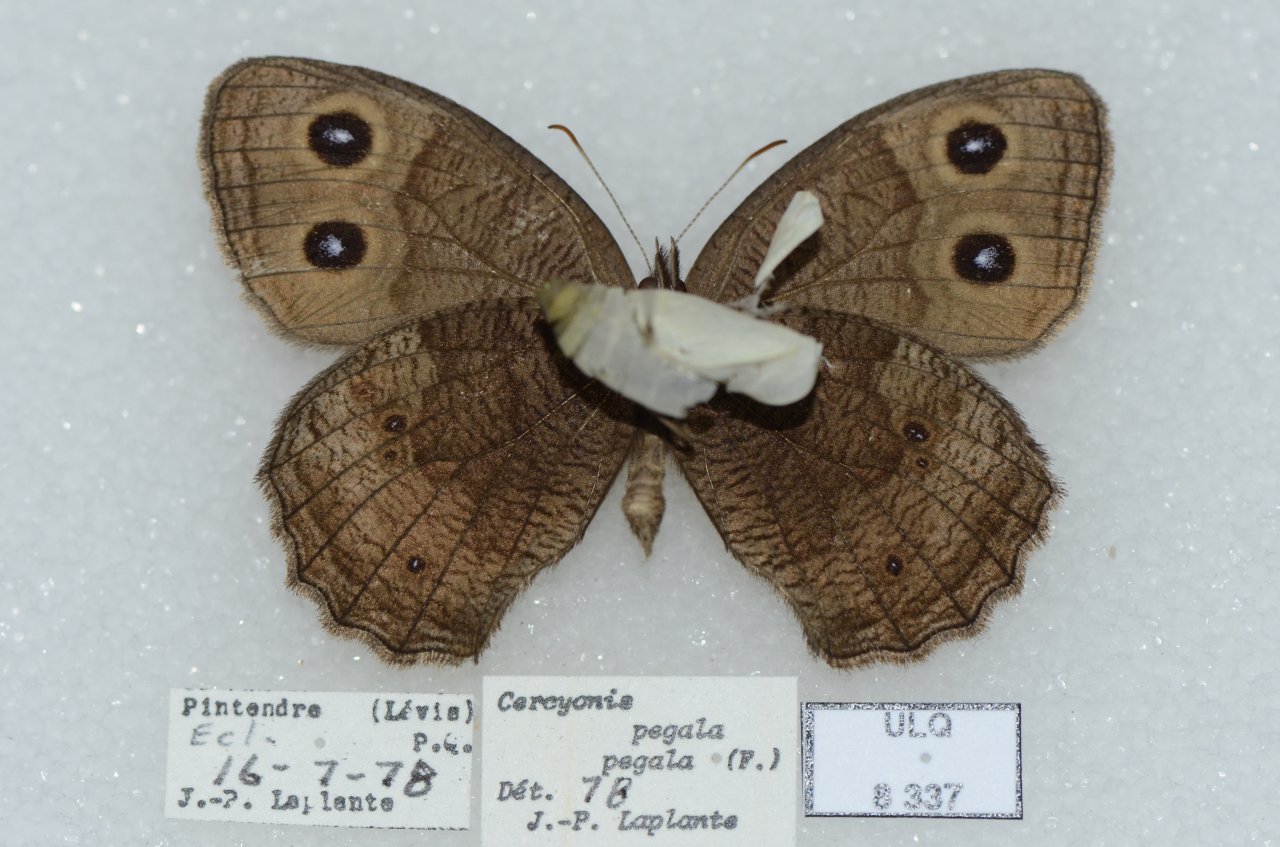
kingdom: Animalia
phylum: Arthropoda
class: Insecta
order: Lepidoptera
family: Nymphalidae
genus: Cercyonis
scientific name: Cercyonis pegala
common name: Common Wood-Nymph
